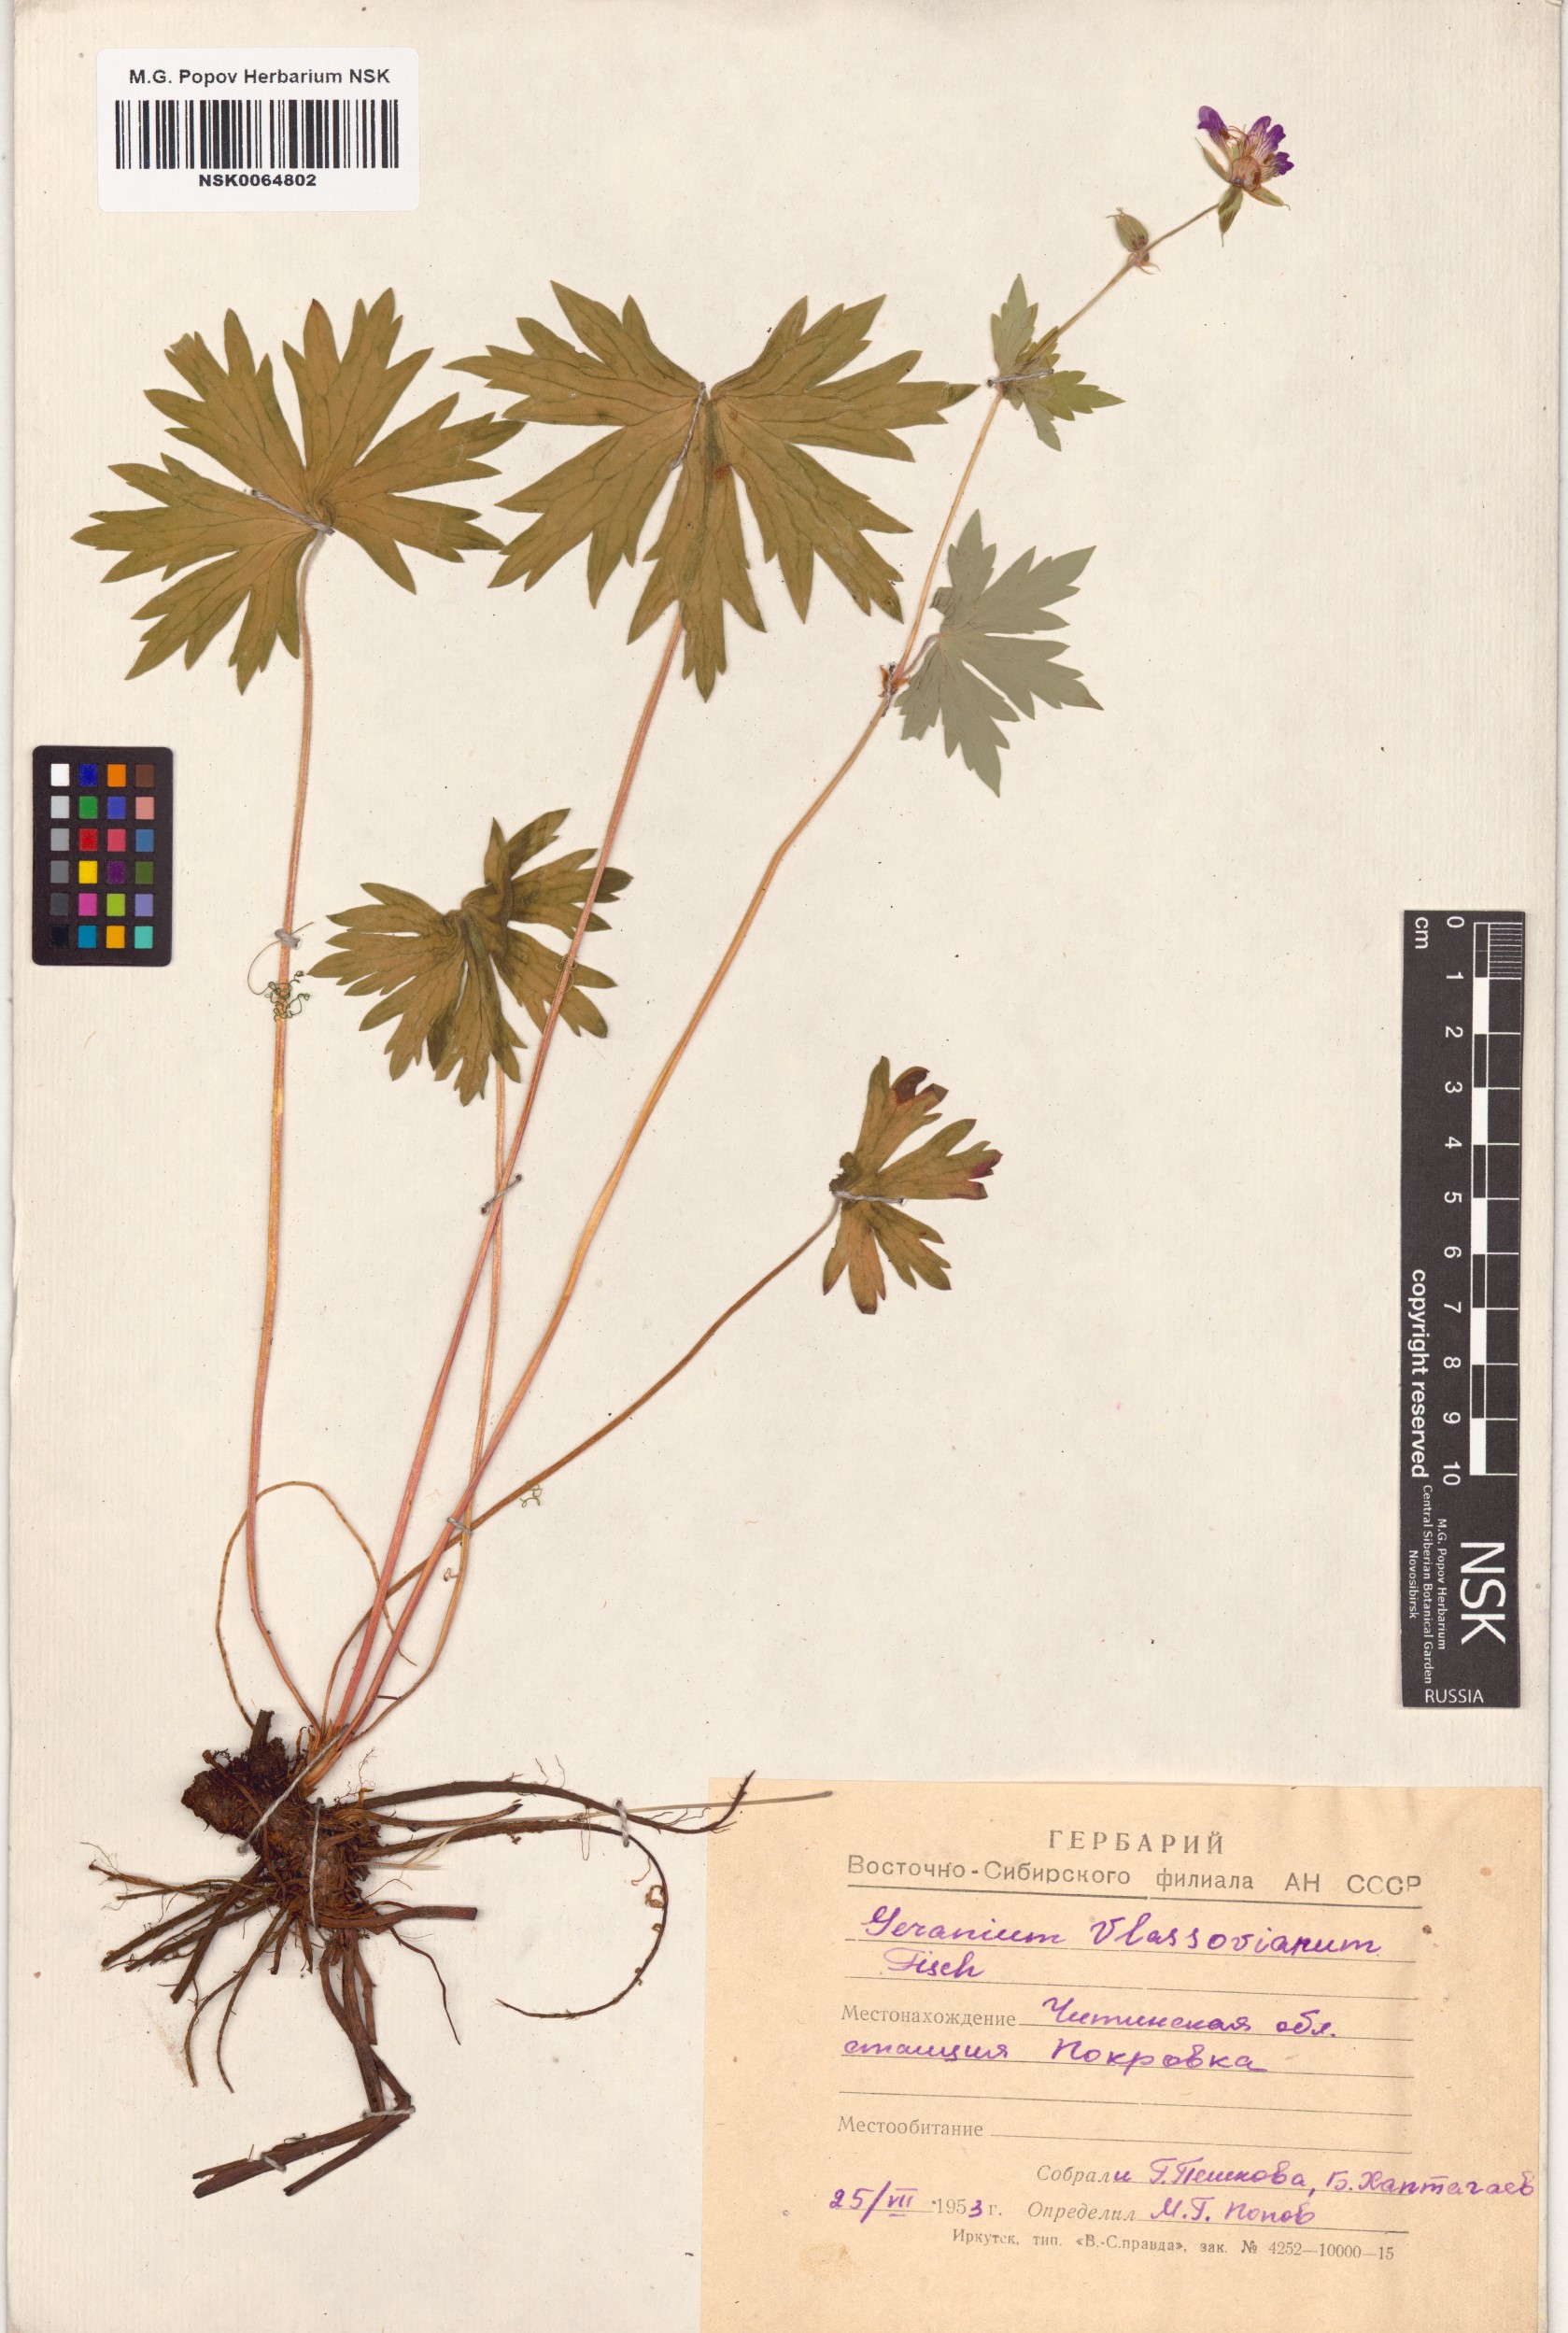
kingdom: Plantae
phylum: Tracheophyta
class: Magnoliopsida
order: Geraniales
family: Geraniaceae
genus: Geranium
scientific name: Geranium wlassovianum
